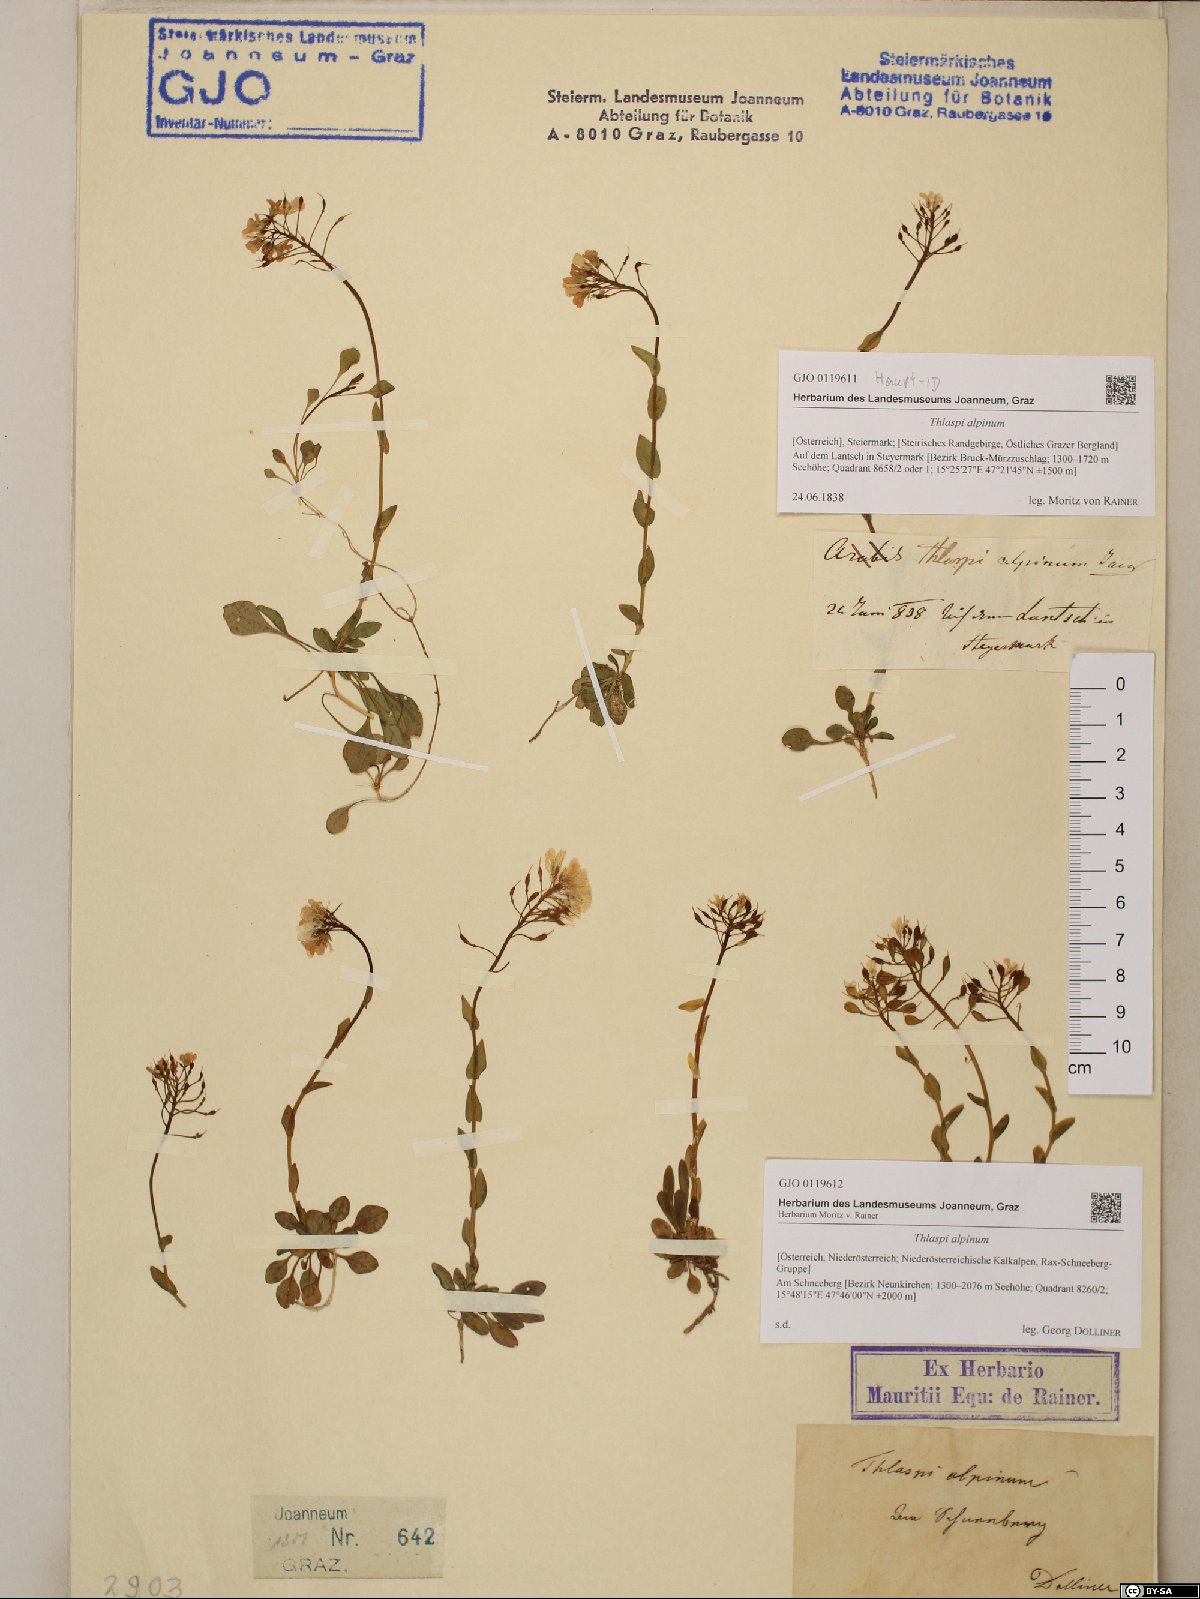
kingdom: Plantae
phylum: Tracheophyta
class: Magnoliopsida
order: Brassicales
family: Brassicaceae
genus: Noccaea
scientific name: Noccaea alpestris
